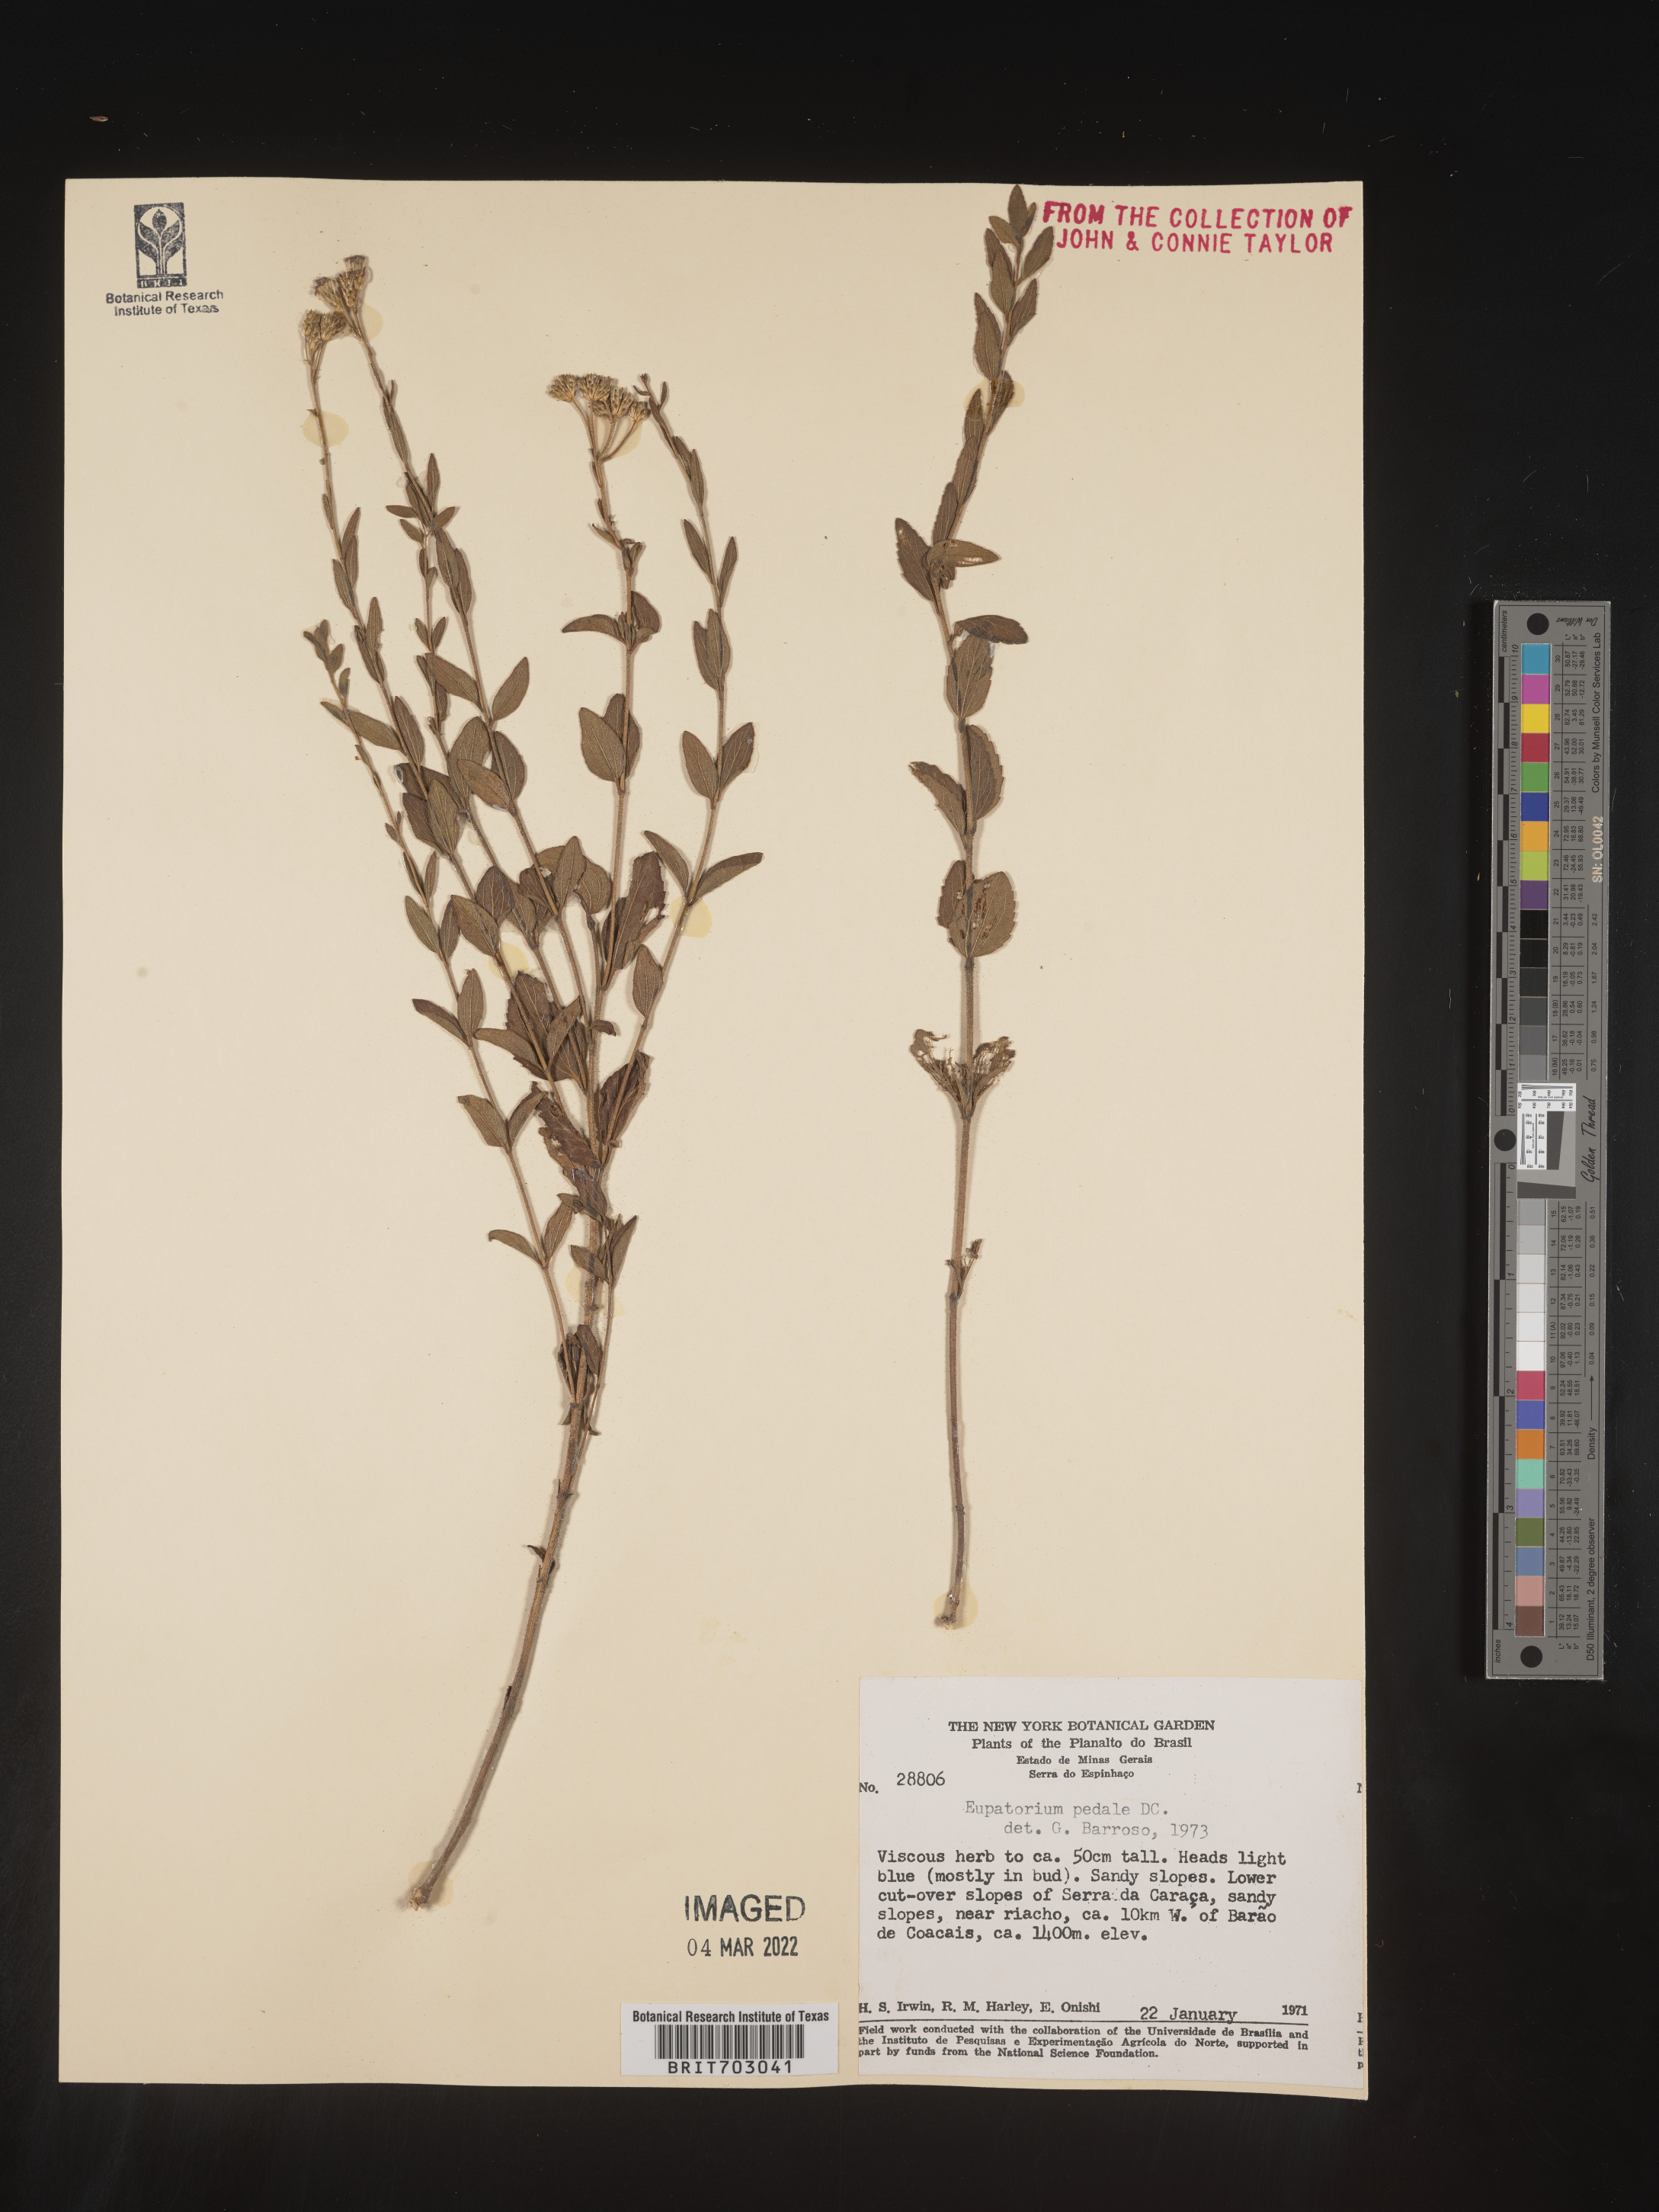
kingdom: Plantae
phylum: Tracheophyta
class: Magnoliopsida
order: Asterales
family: Asteraceae
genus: Eupatorium
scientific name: Eupatorium
